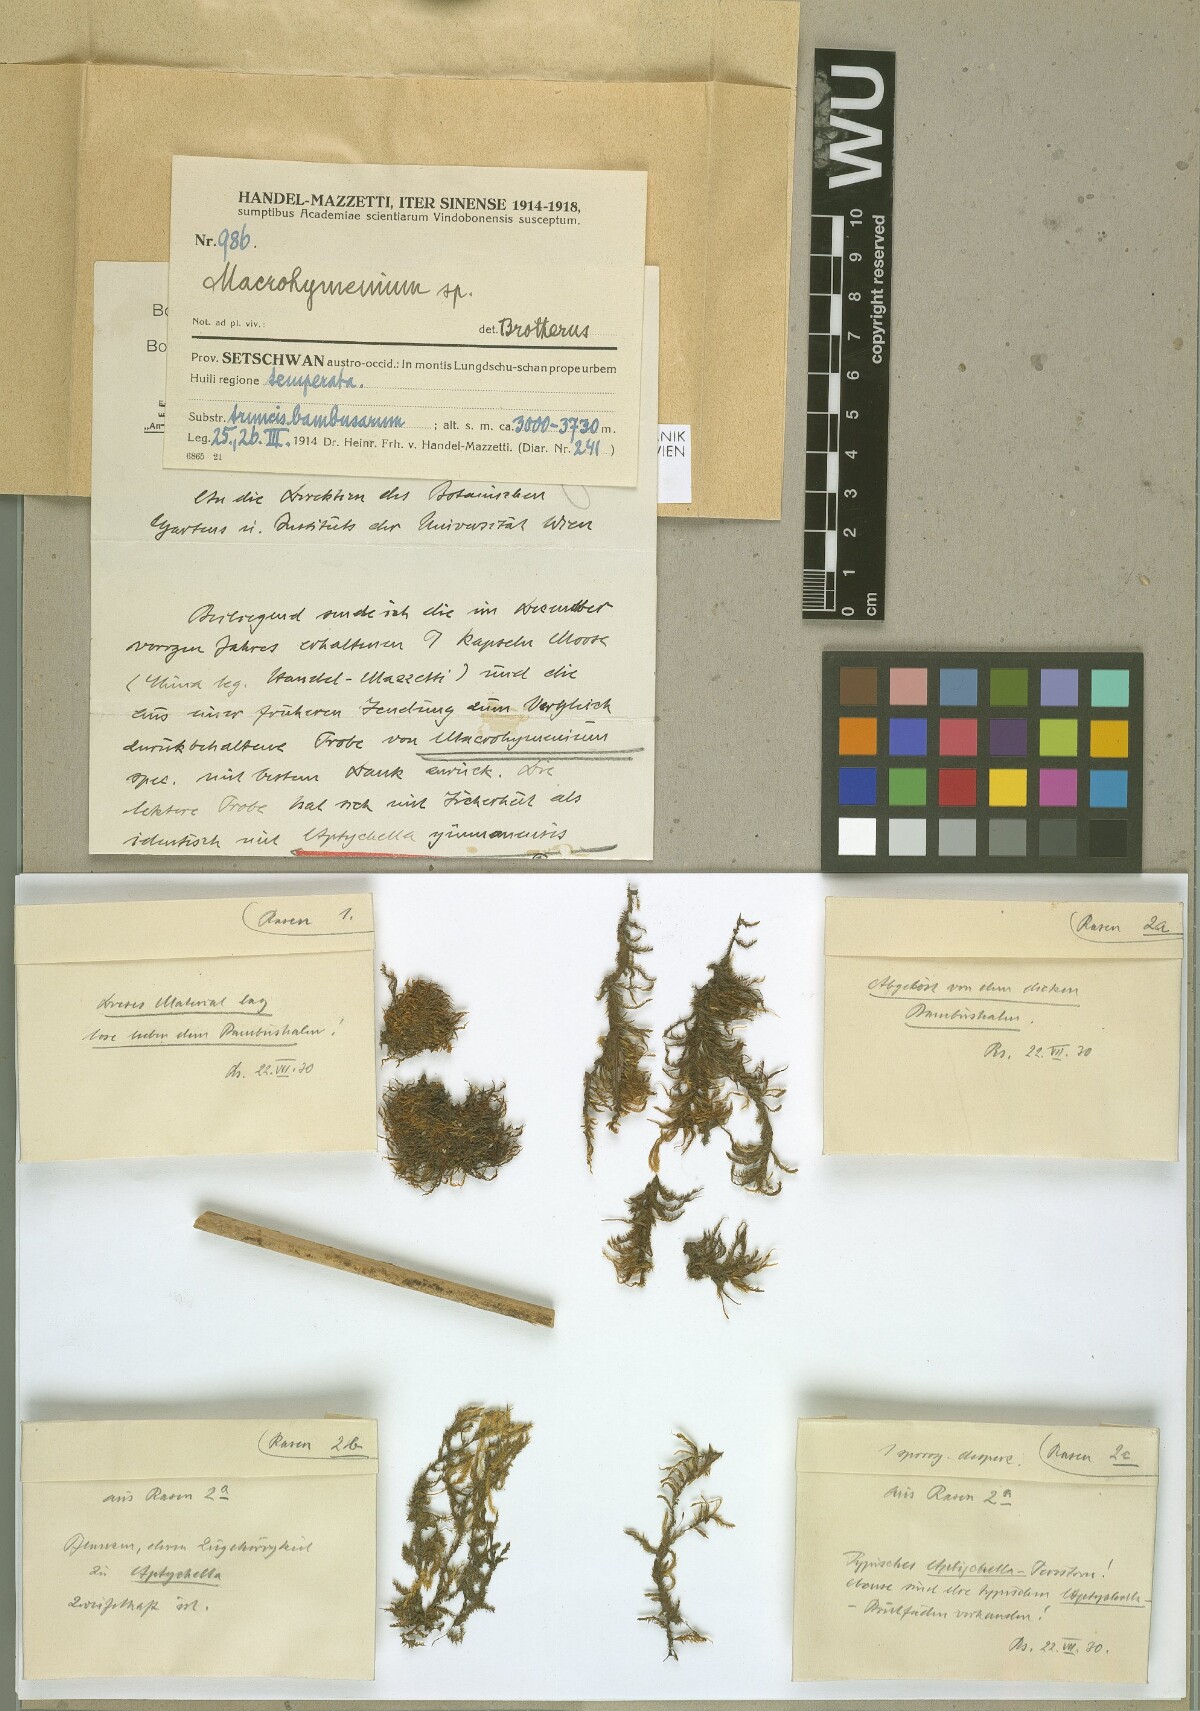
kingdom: Plantae
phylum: Bryophyta
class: Bryopsida
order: Hypnales
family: Pylaisiadelphaceae
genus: Aptychella
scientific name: Aptychella planula
